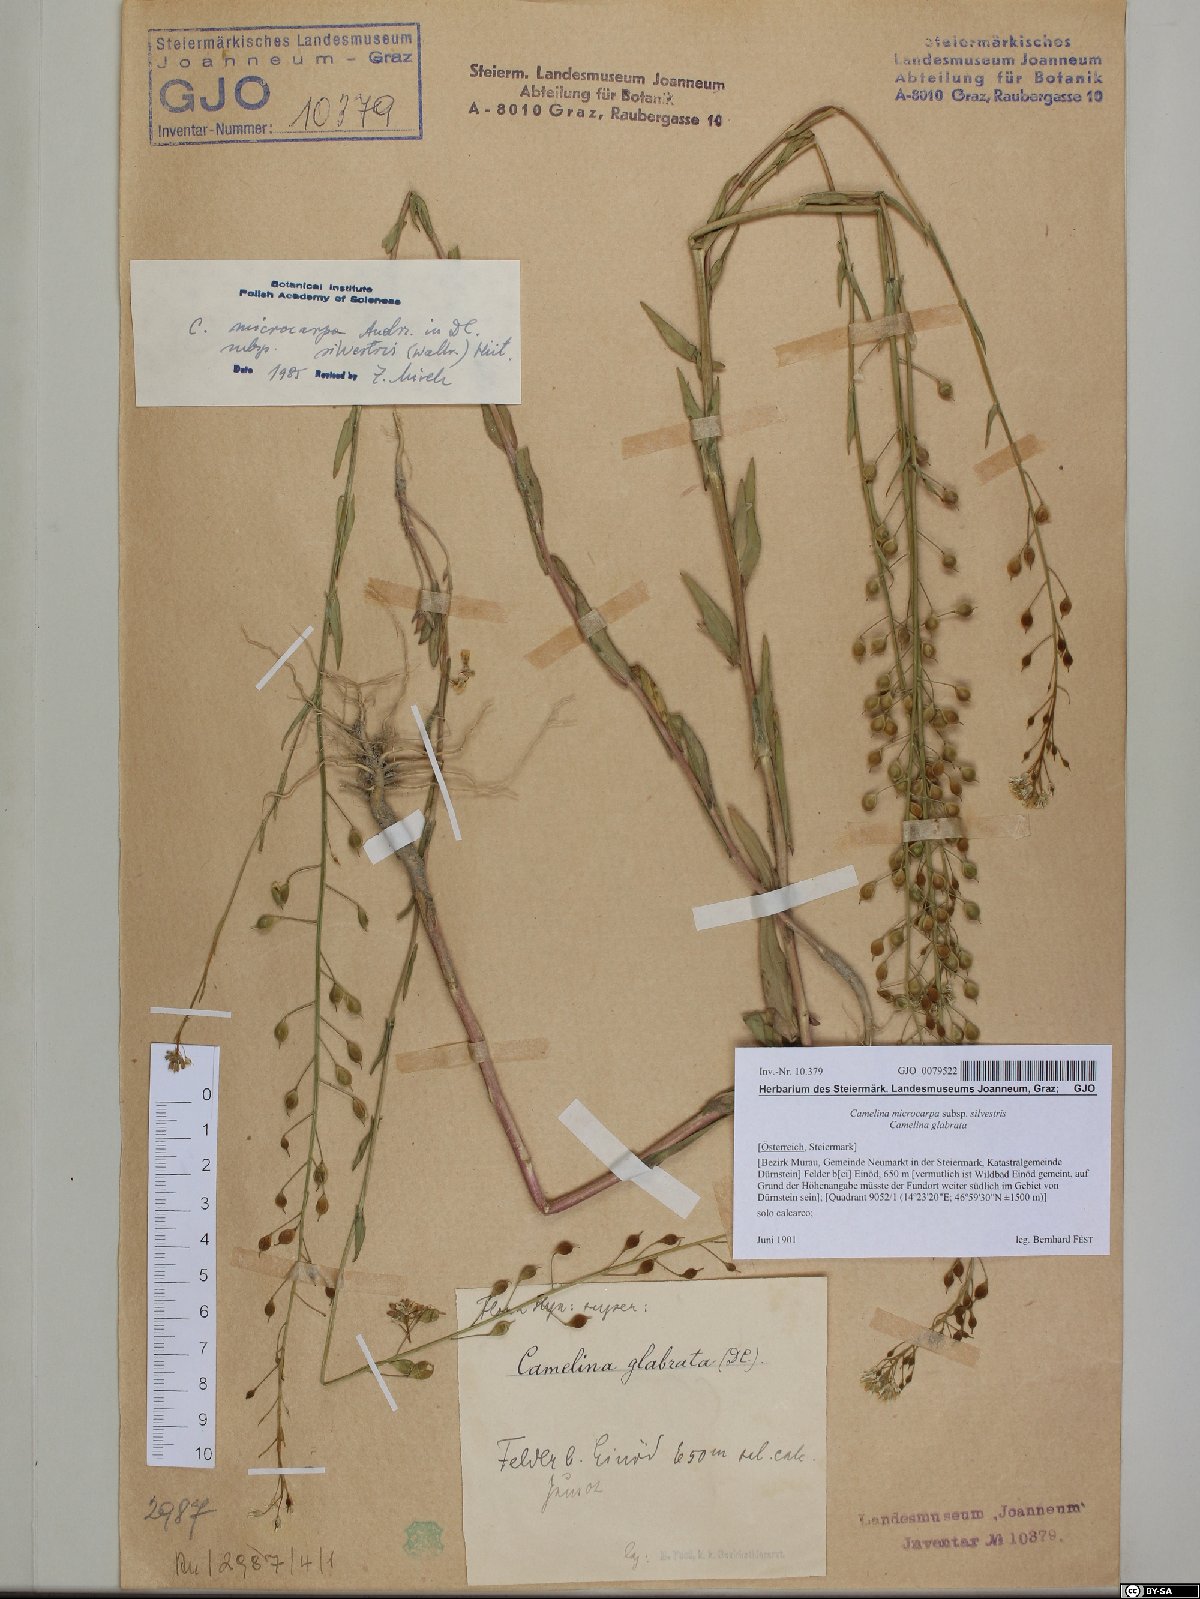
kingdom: Plantae
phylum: Tracheophyta
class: Magnoliopsida
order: Brassicales
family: Brassicaceae
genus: Camelina
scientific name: Camelina microcarpa
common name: Lesser gold-of-pleasure
